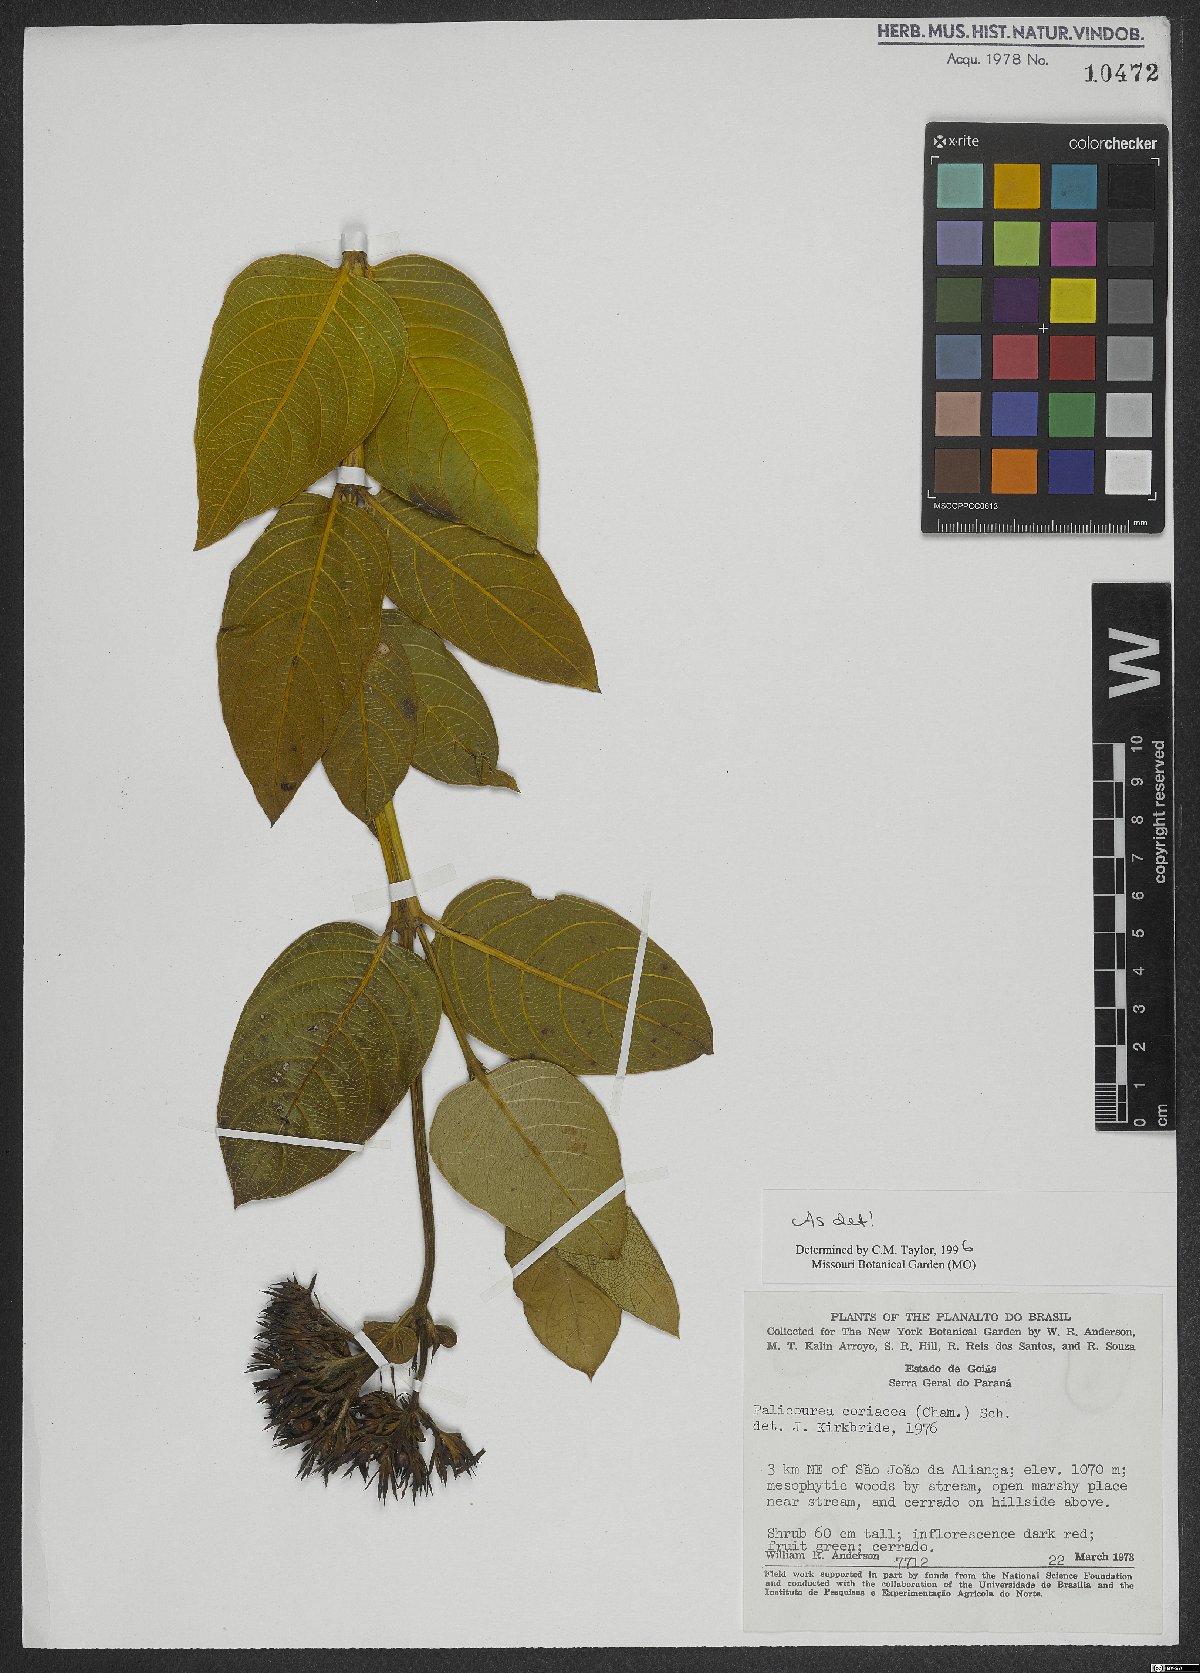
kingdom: Plantae
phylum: Tracheophyta
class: Magnoliopsida
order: Gentianales
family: Rubiaceae
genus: Palicourea
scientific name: Palicourea coriacea
